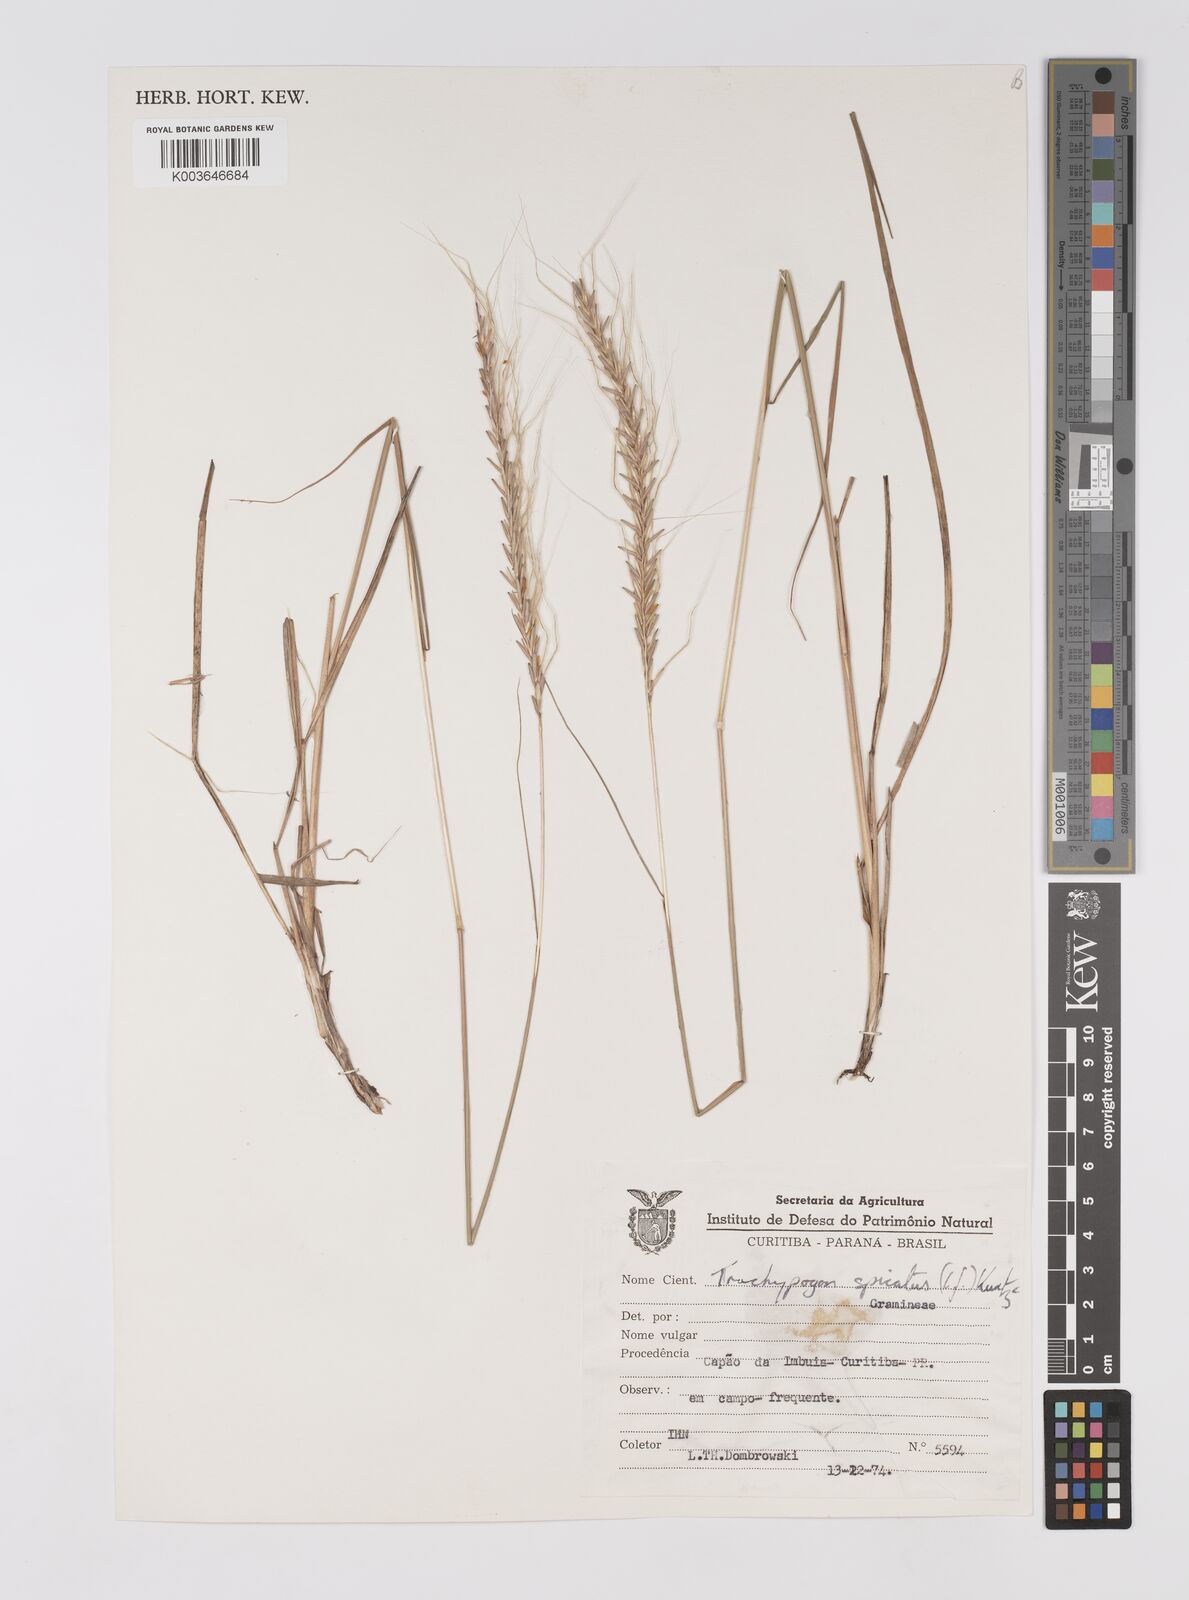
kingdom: Plantae
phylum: Tracheophyta
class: Liliopsida
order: Poales
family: Poaceae
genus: Trachypogon
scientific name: Trachypogon spicatus
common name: Crinkle-awn
